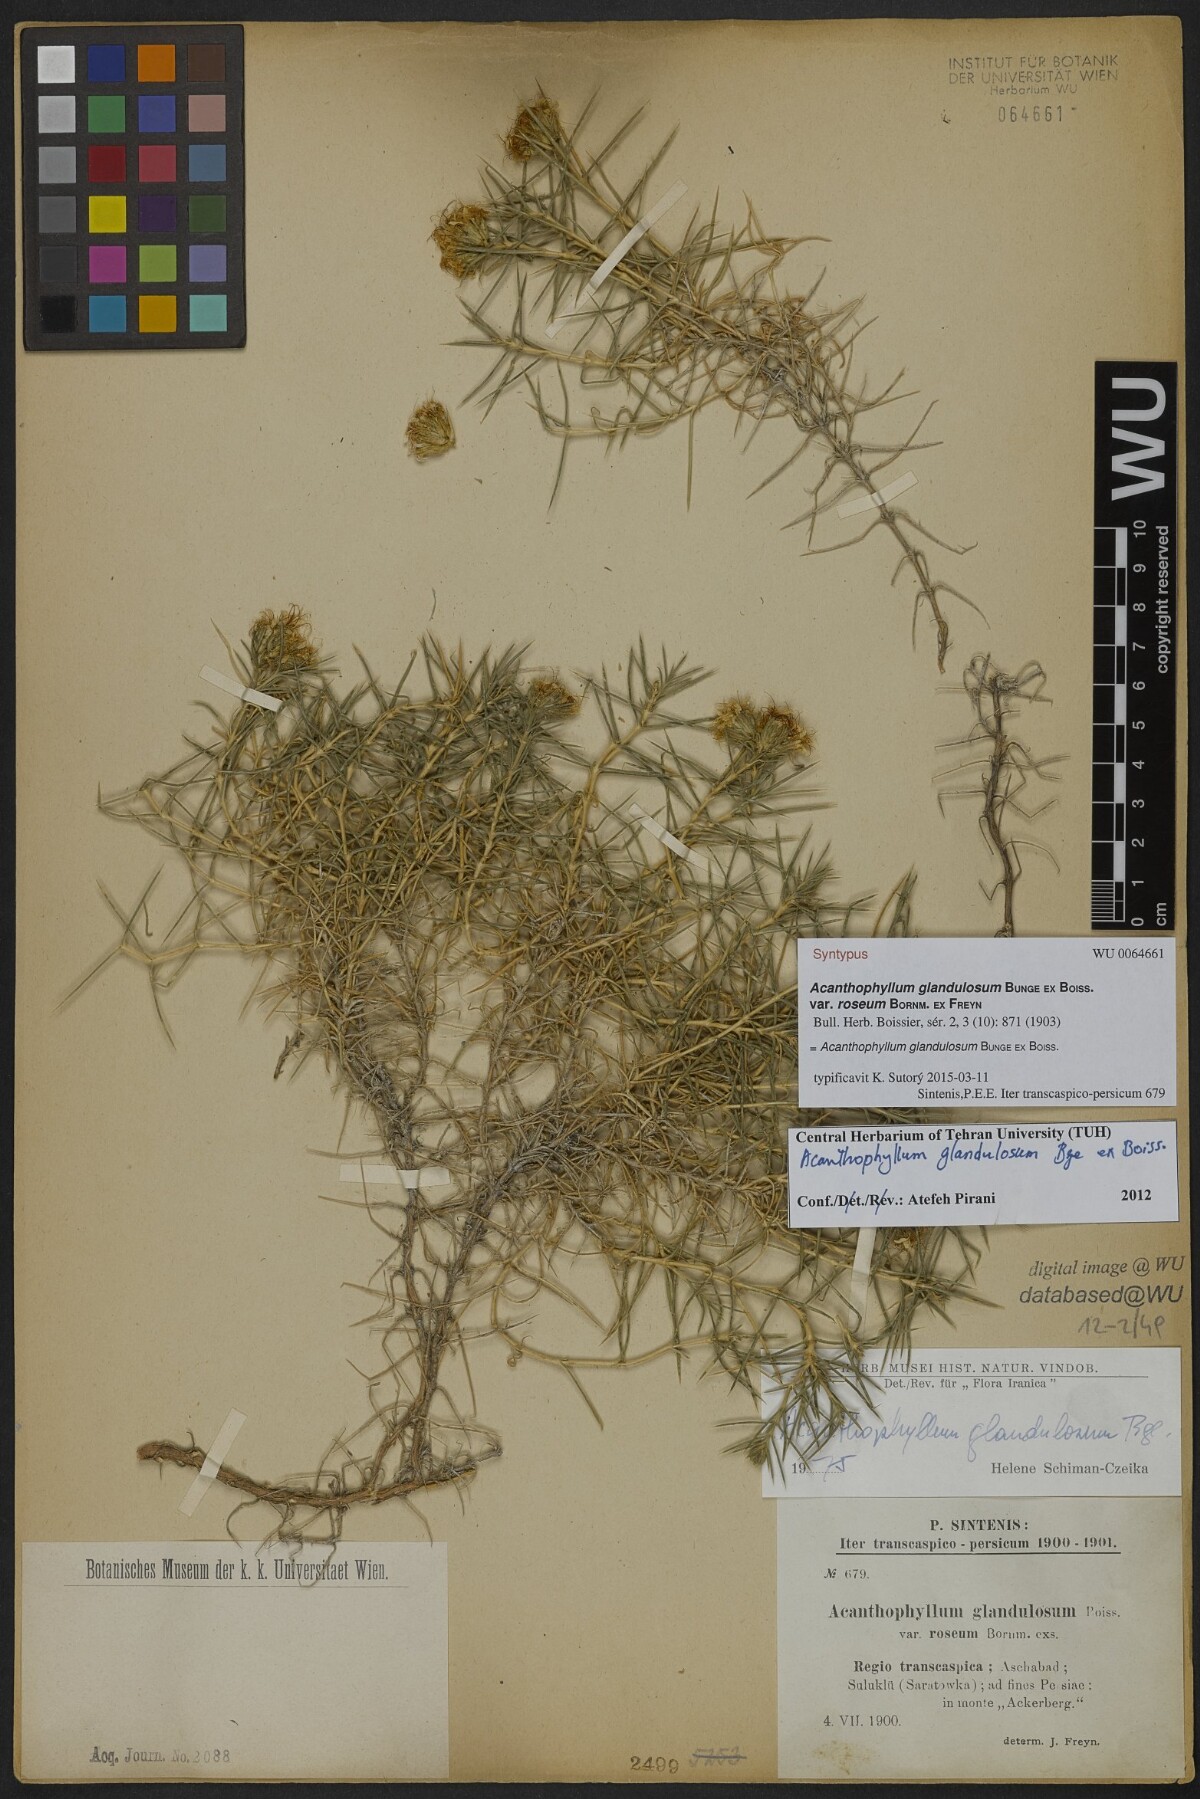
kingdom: Plantae
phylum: Tracheophyta
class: Magnoliopsida
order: Caryophyllales
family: Caryophyllaceae
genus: Acanthophyllum
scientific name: Acanthophyllum glandulosum
